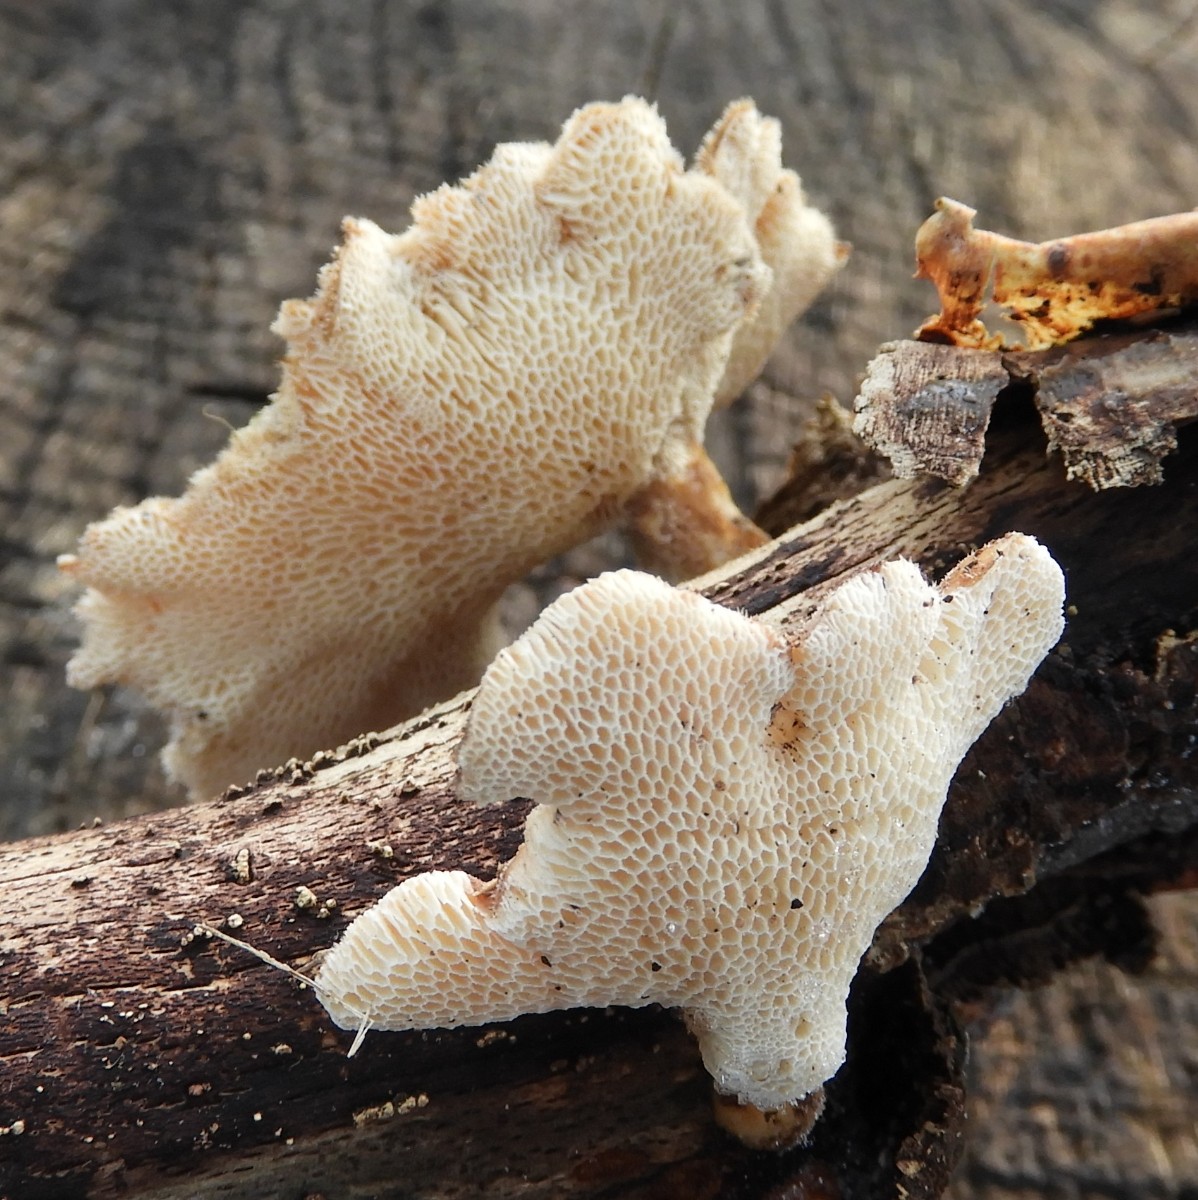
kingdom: Fungi
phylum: Basidiomycota
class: Agaricomycetes
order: Polyporales
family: Polyporaceae
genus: Lentinus
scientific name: Lentinus brumalis
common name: vinter-stilkporesvamp
